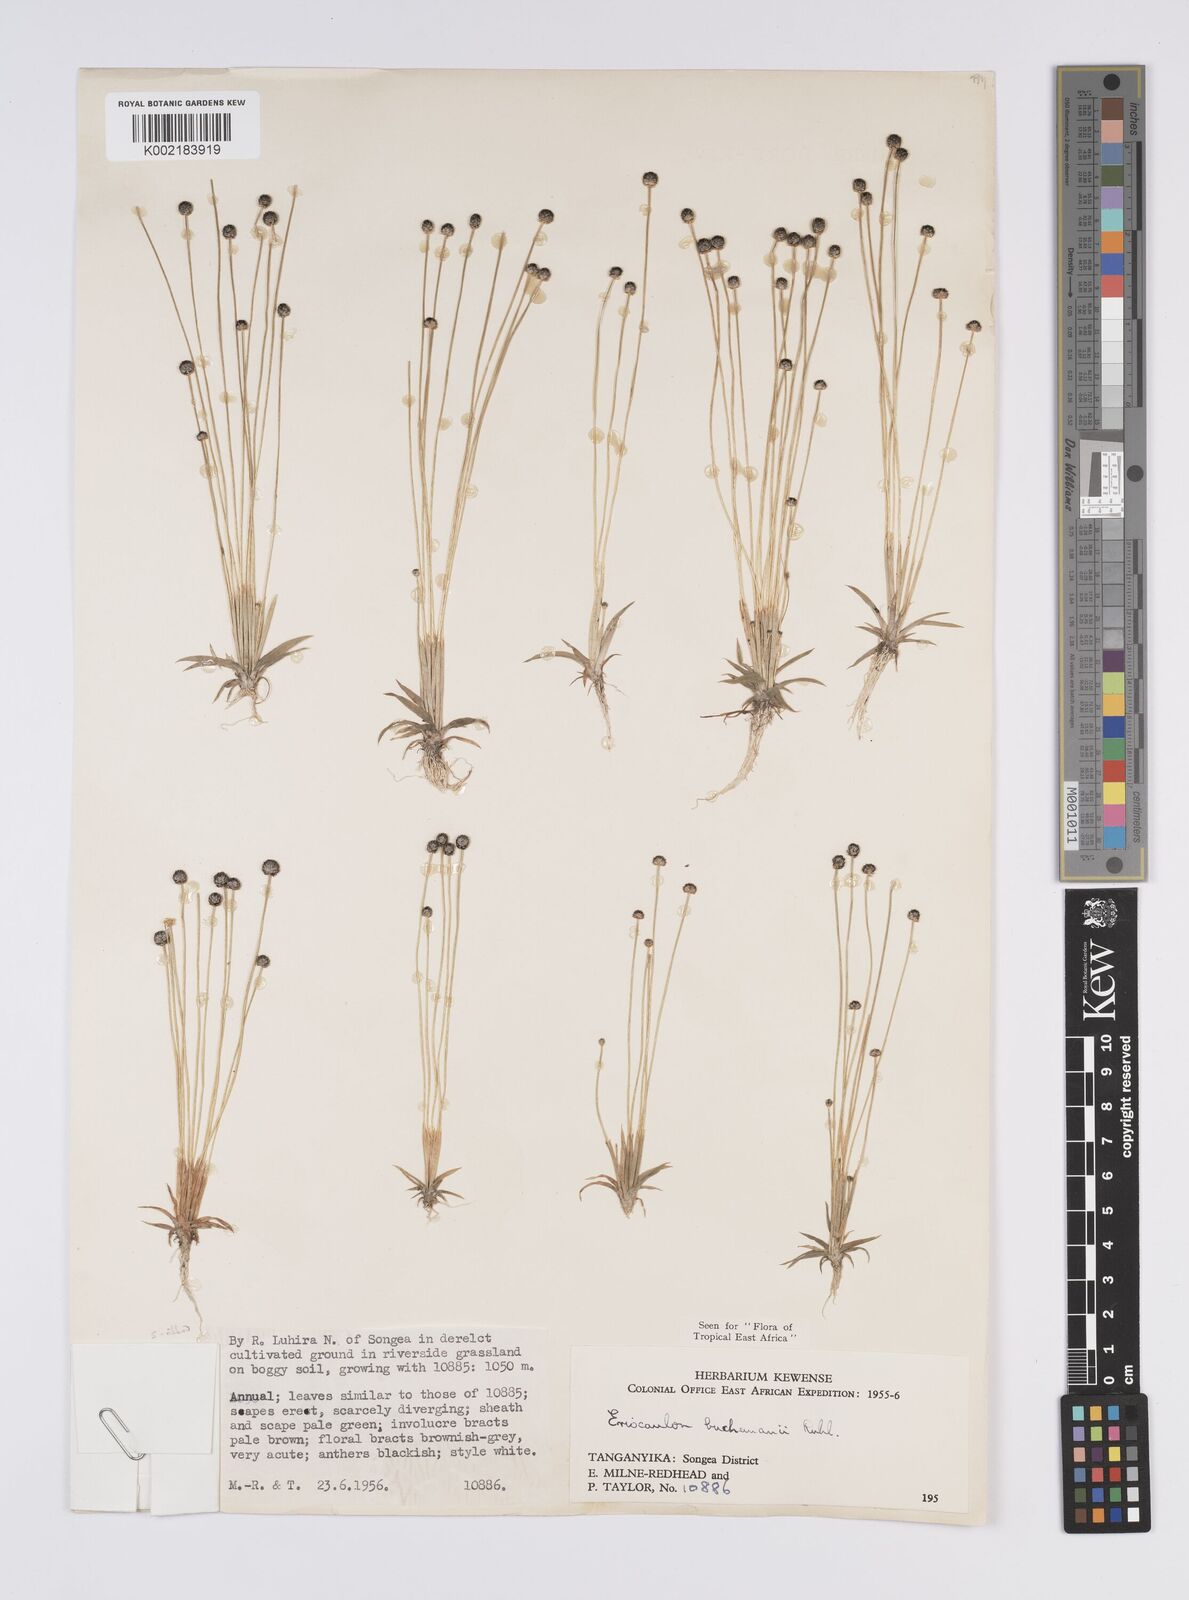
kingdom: Plantae
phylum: Tracheophyta
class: Liliopsida
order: Poales
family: Eriocaulaceae
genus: Eriocaulon
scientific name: Eriocaulon buchananii
